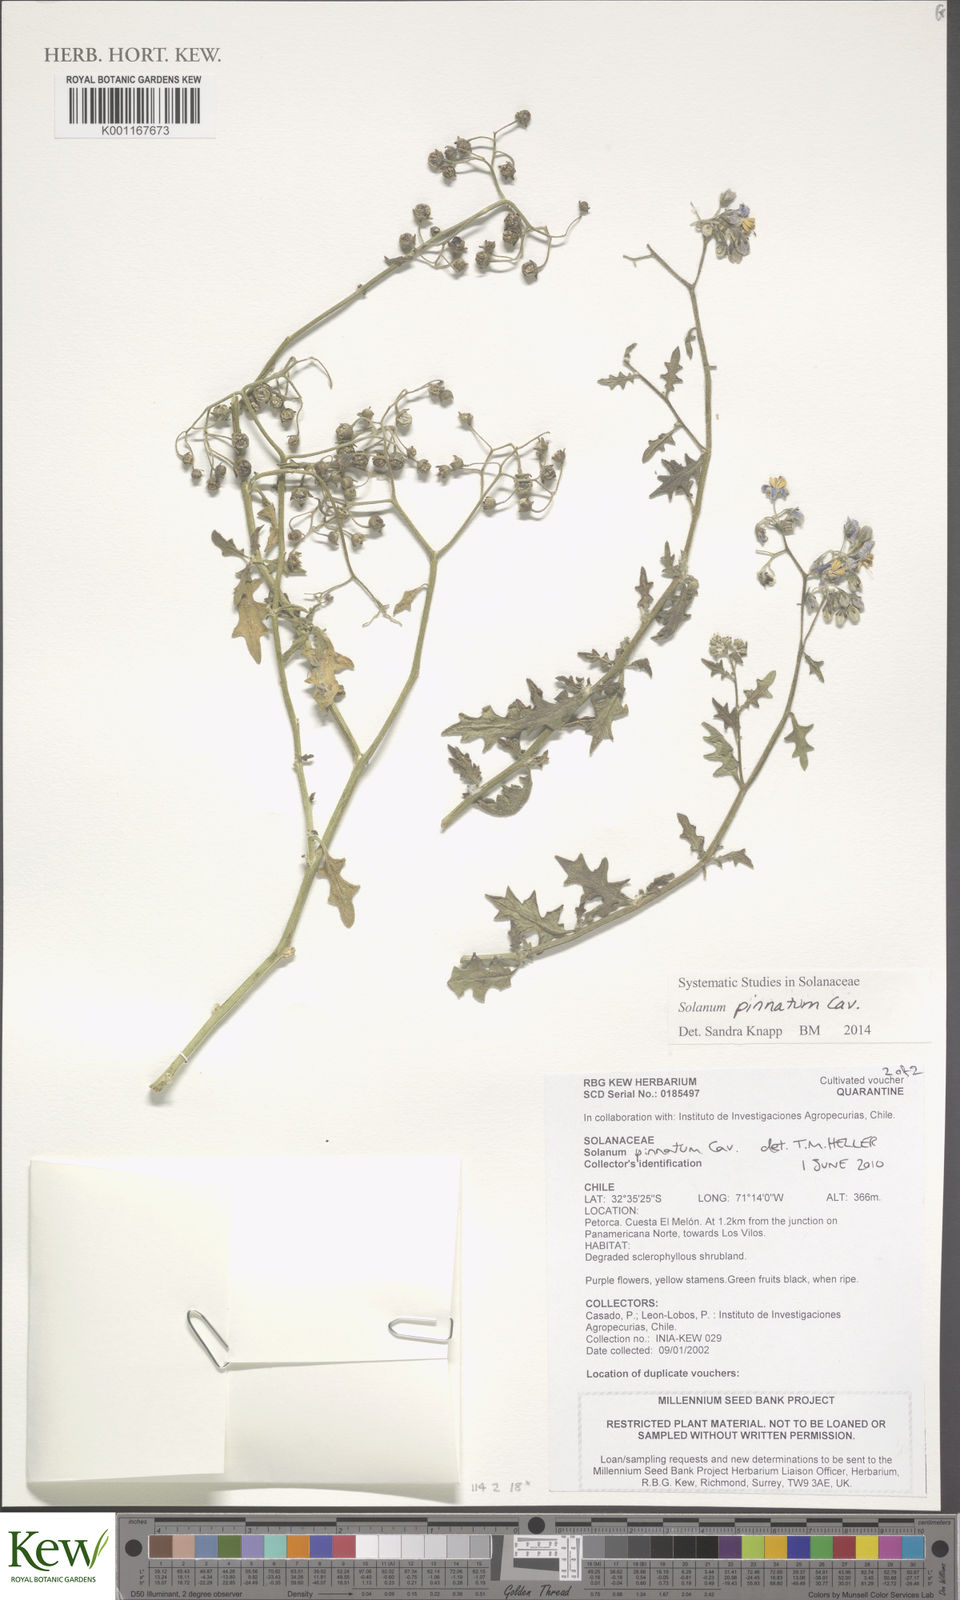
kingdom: Plantae
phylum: Tracheophyta
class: Magnoliopsida
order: Solanales
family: Solanaceae
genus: Solanum
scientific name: Solanum pinnatum
